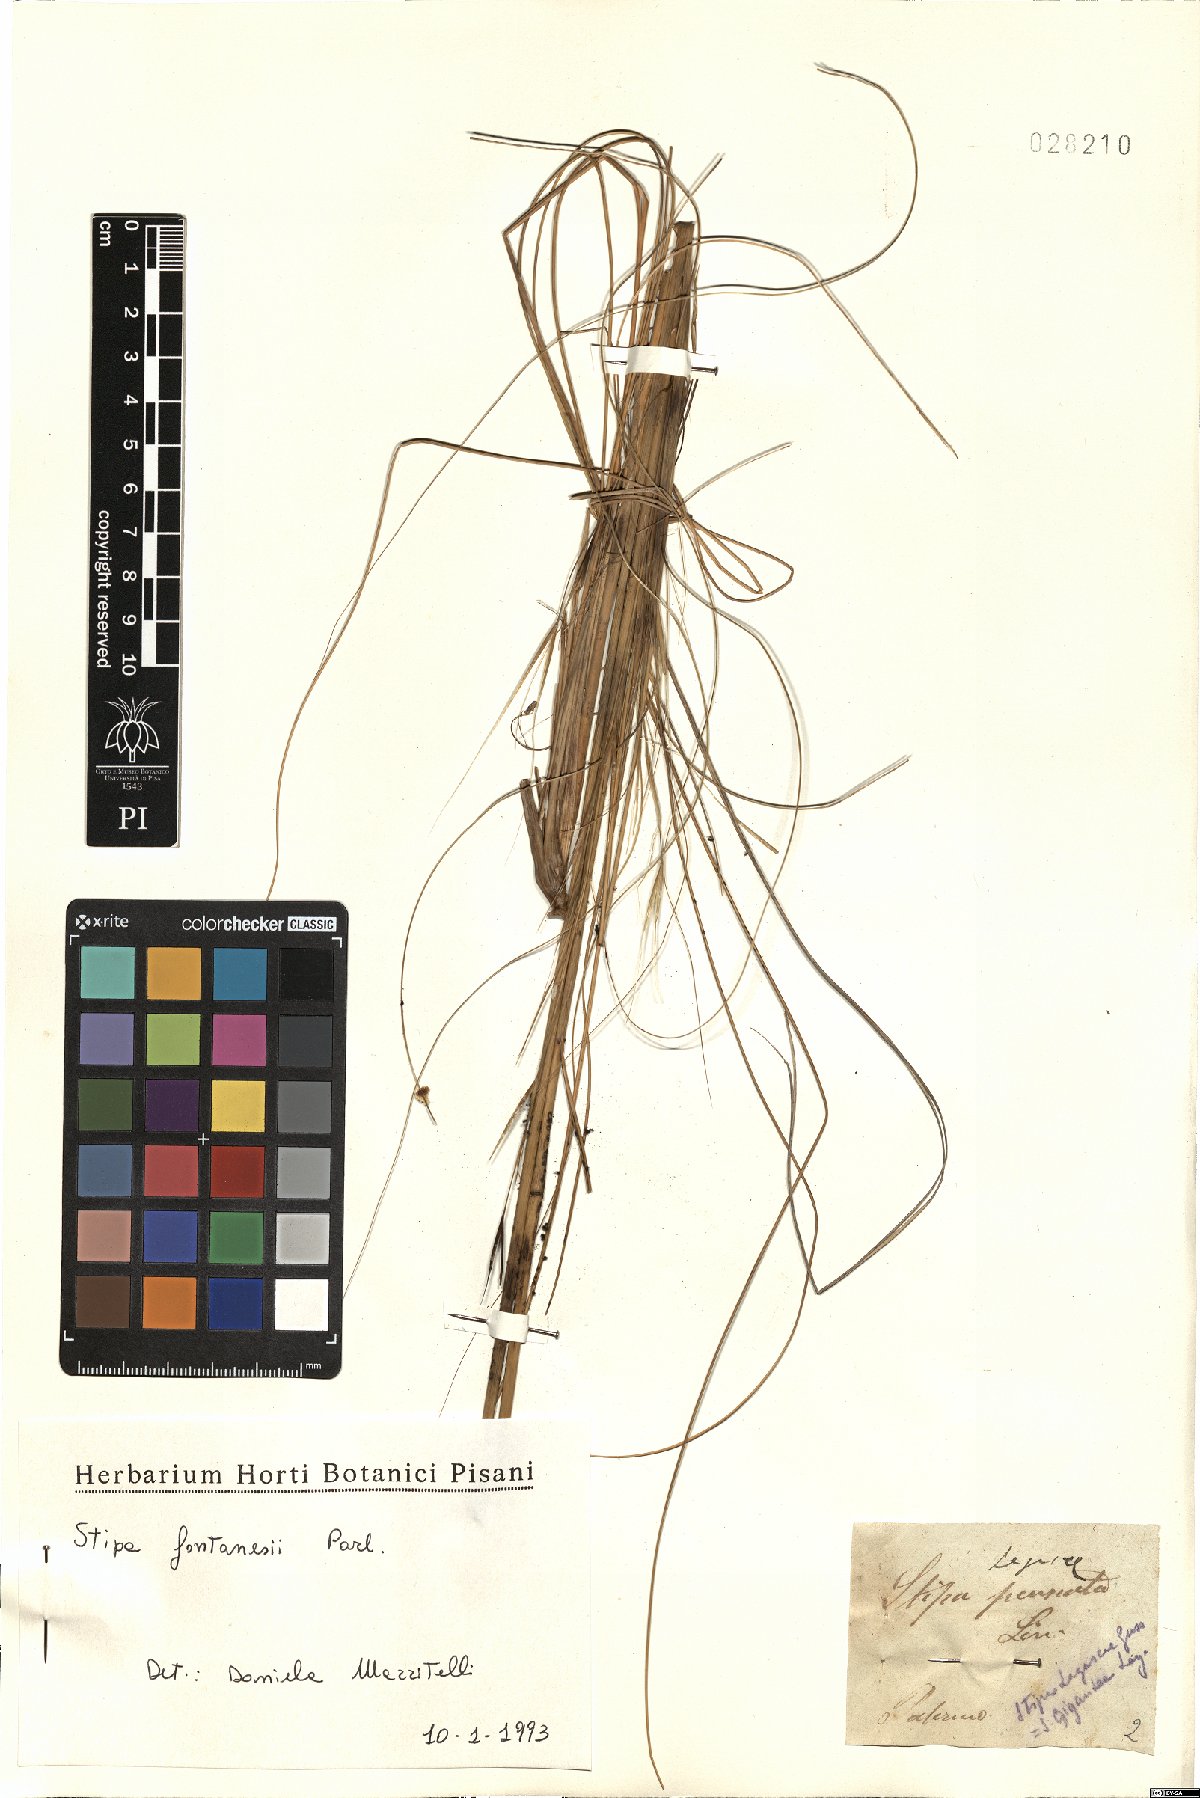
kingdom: Plantae
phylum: Tracheophyta
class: Liliopsida
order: Poales
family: Poaceae
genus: Stipa
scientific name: Stipa holosericea
